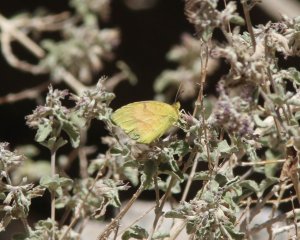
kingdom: Animalia
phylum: Arthropoda
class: Insecta
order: Lepidoptera
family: Pieridae
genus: Abaeis
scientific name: Abaeis nicippe
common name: Sleepy Orange
